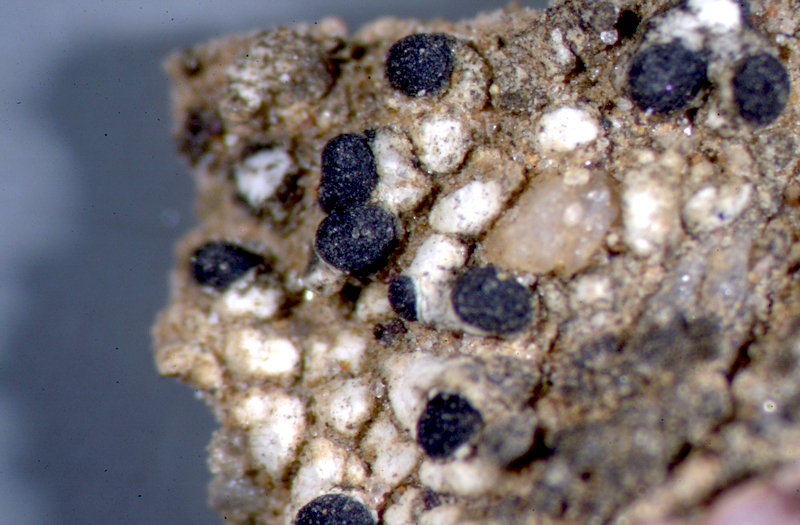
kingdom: Fungi
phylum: Ascomycota
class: Lecanoromycetes
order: Caliciales
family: Caliciaceae
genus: Buellia
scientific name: Buellia
